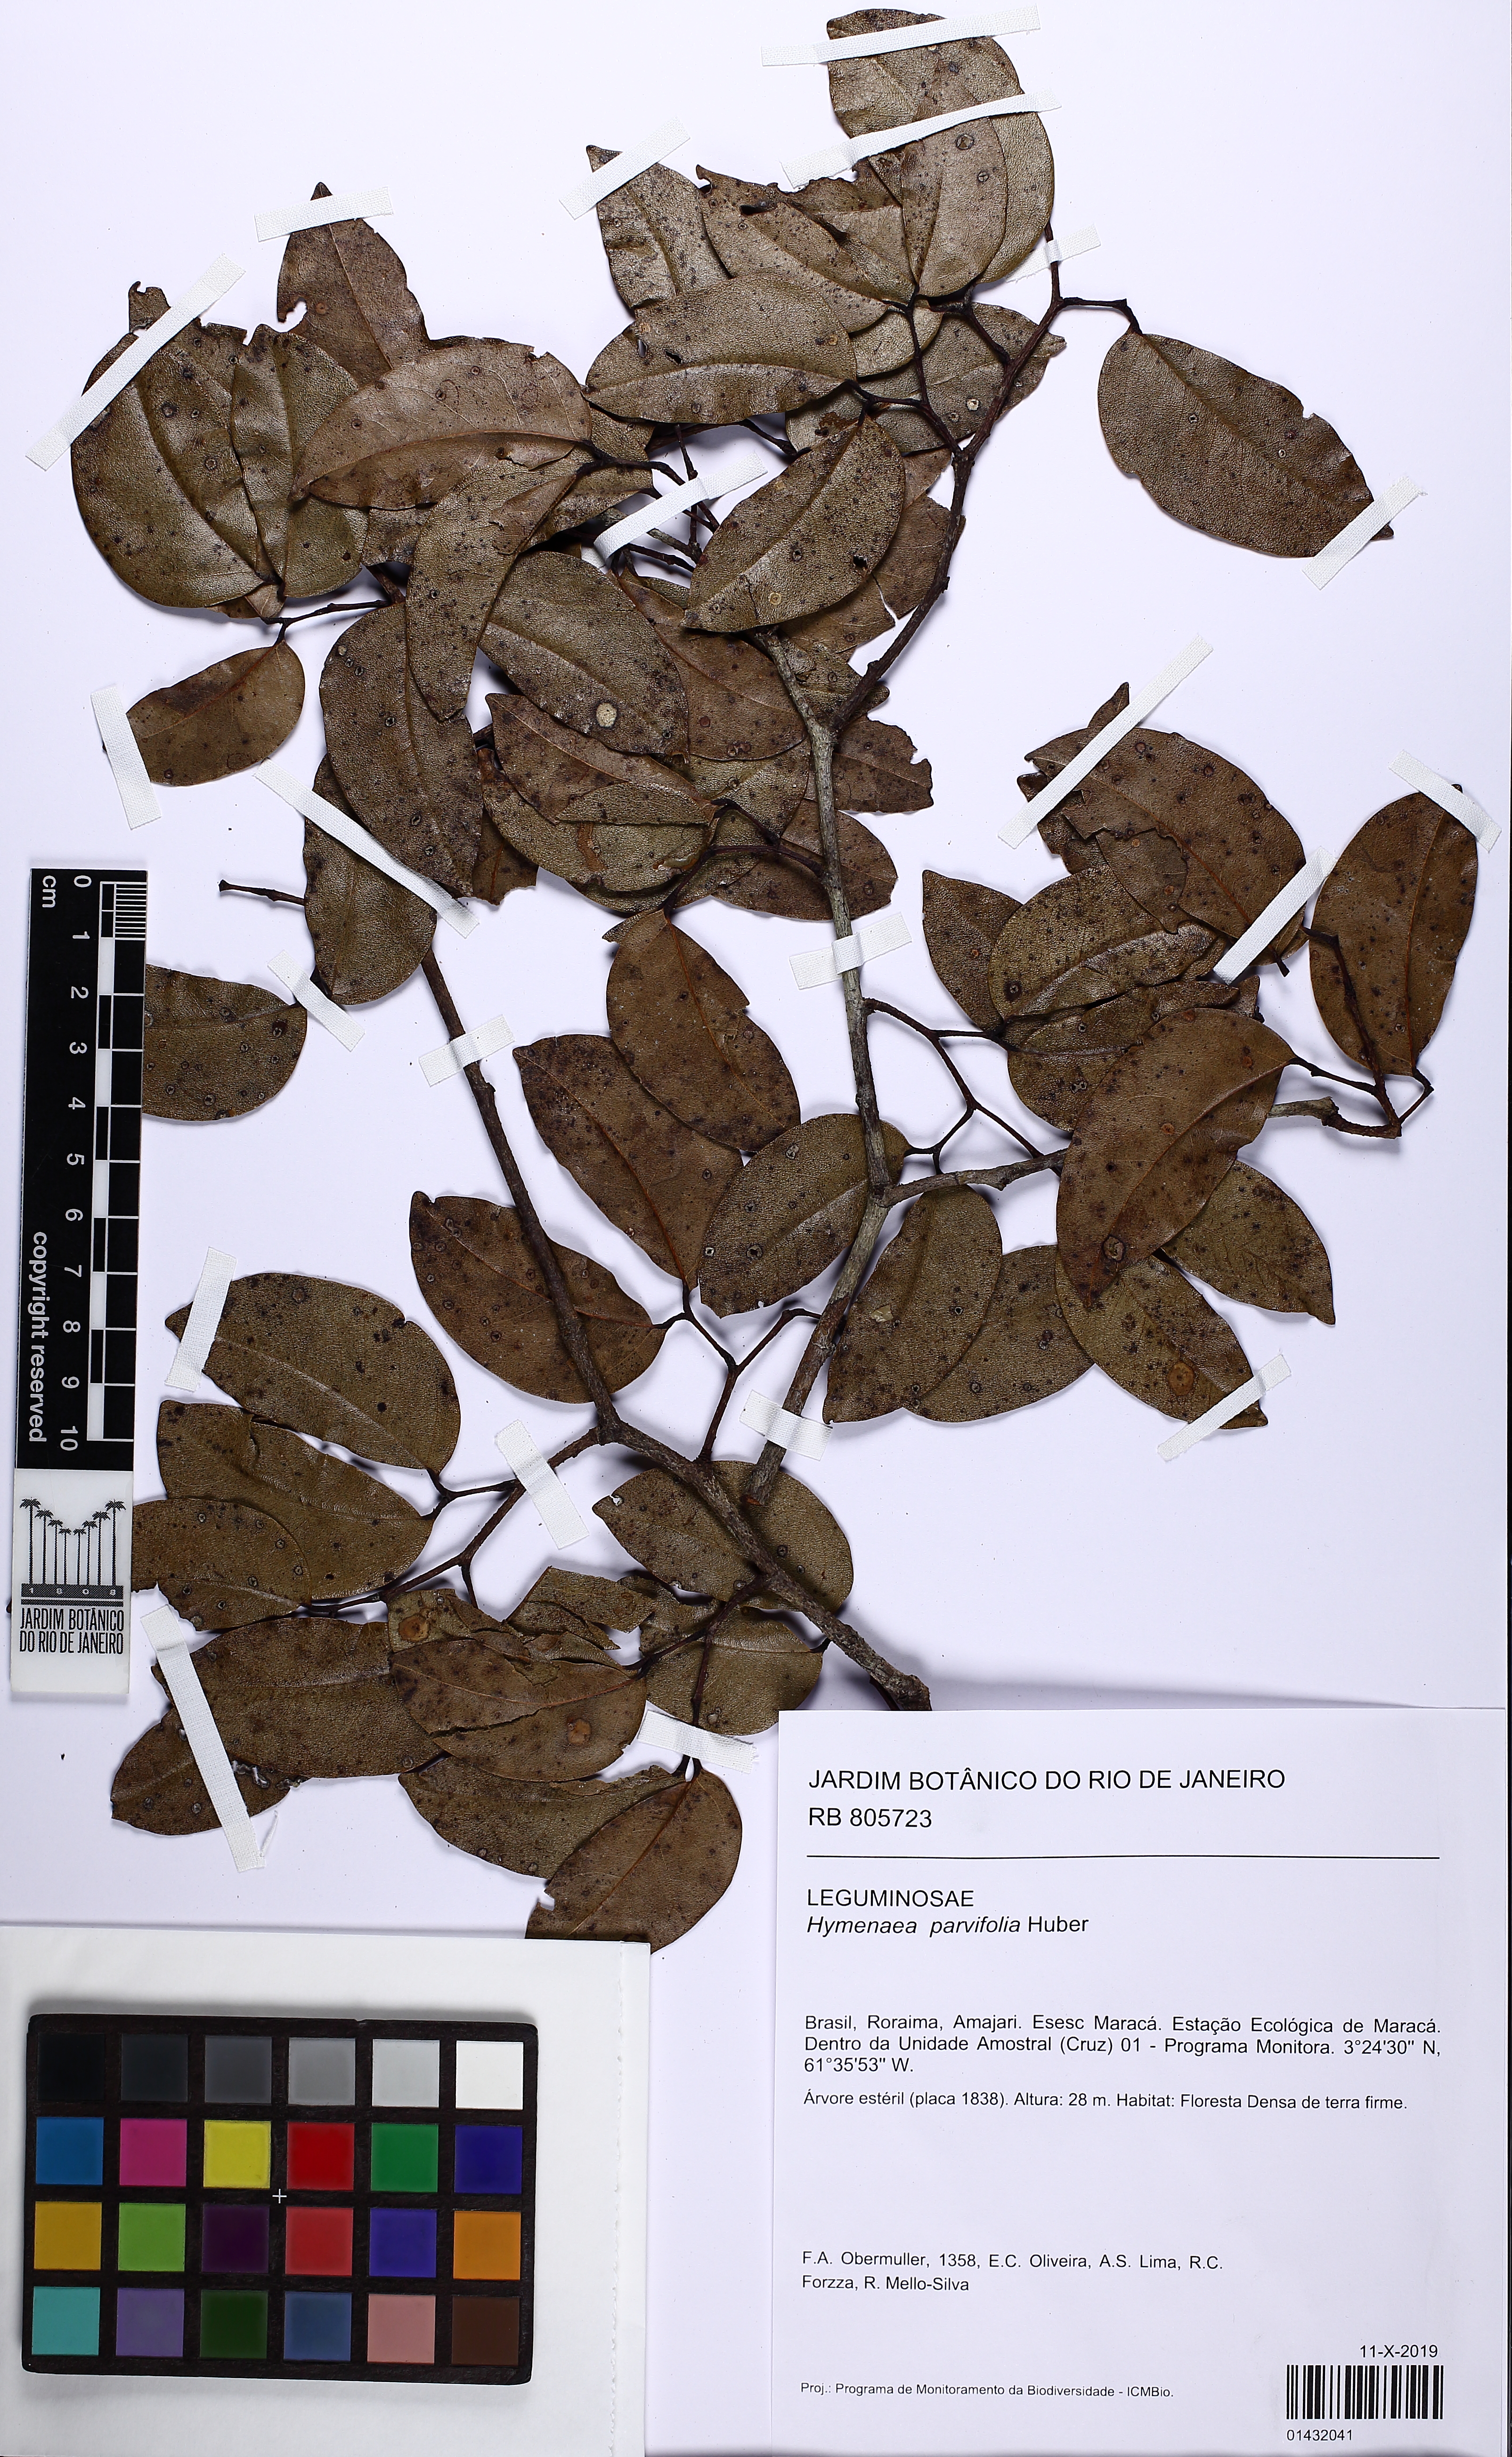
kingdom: Plantae
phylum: Tracheophyta
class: Magnoliopsida
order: Fabales
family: Fabaceae
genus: Hymenaea
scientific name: Hymenaea parvifolia
